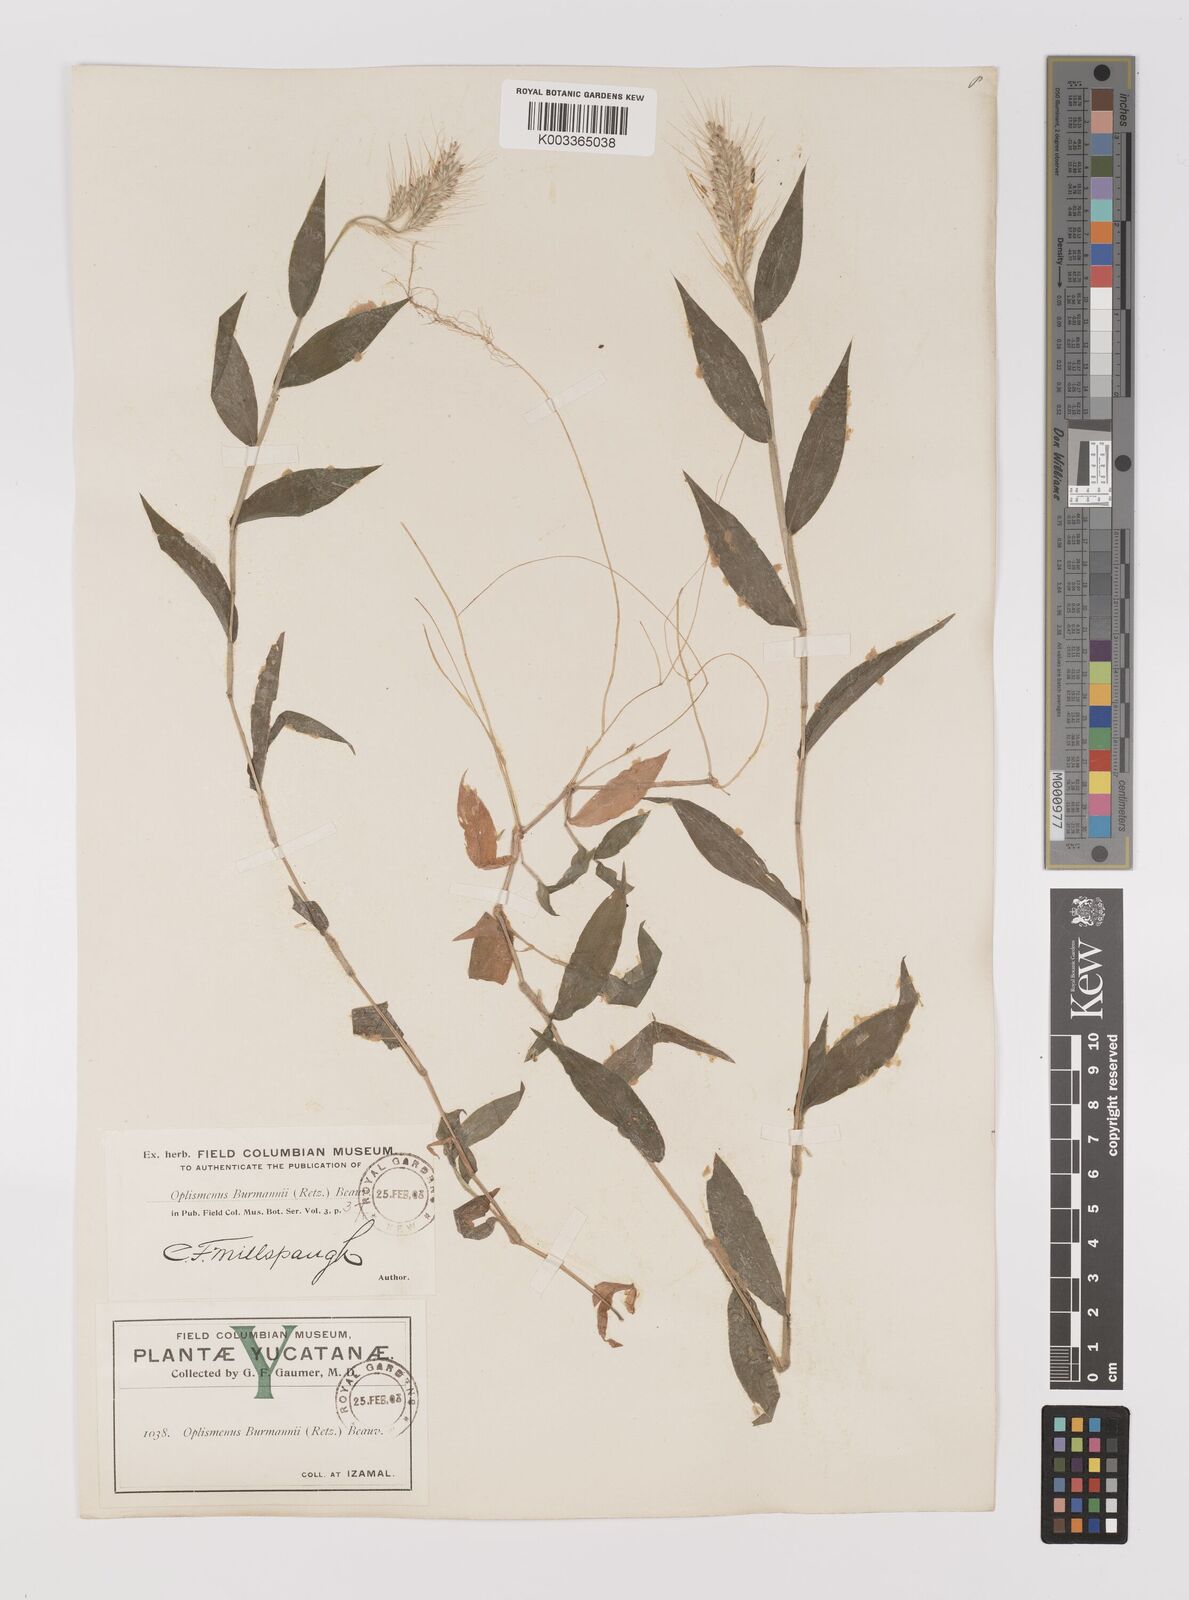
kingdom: Plantae
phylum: Tracheophyta
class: Liliopsida
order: Poales
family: Poaceae
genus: Oplismenus
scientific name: Oplismenus burmanni
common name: Burmann's basketgrass
